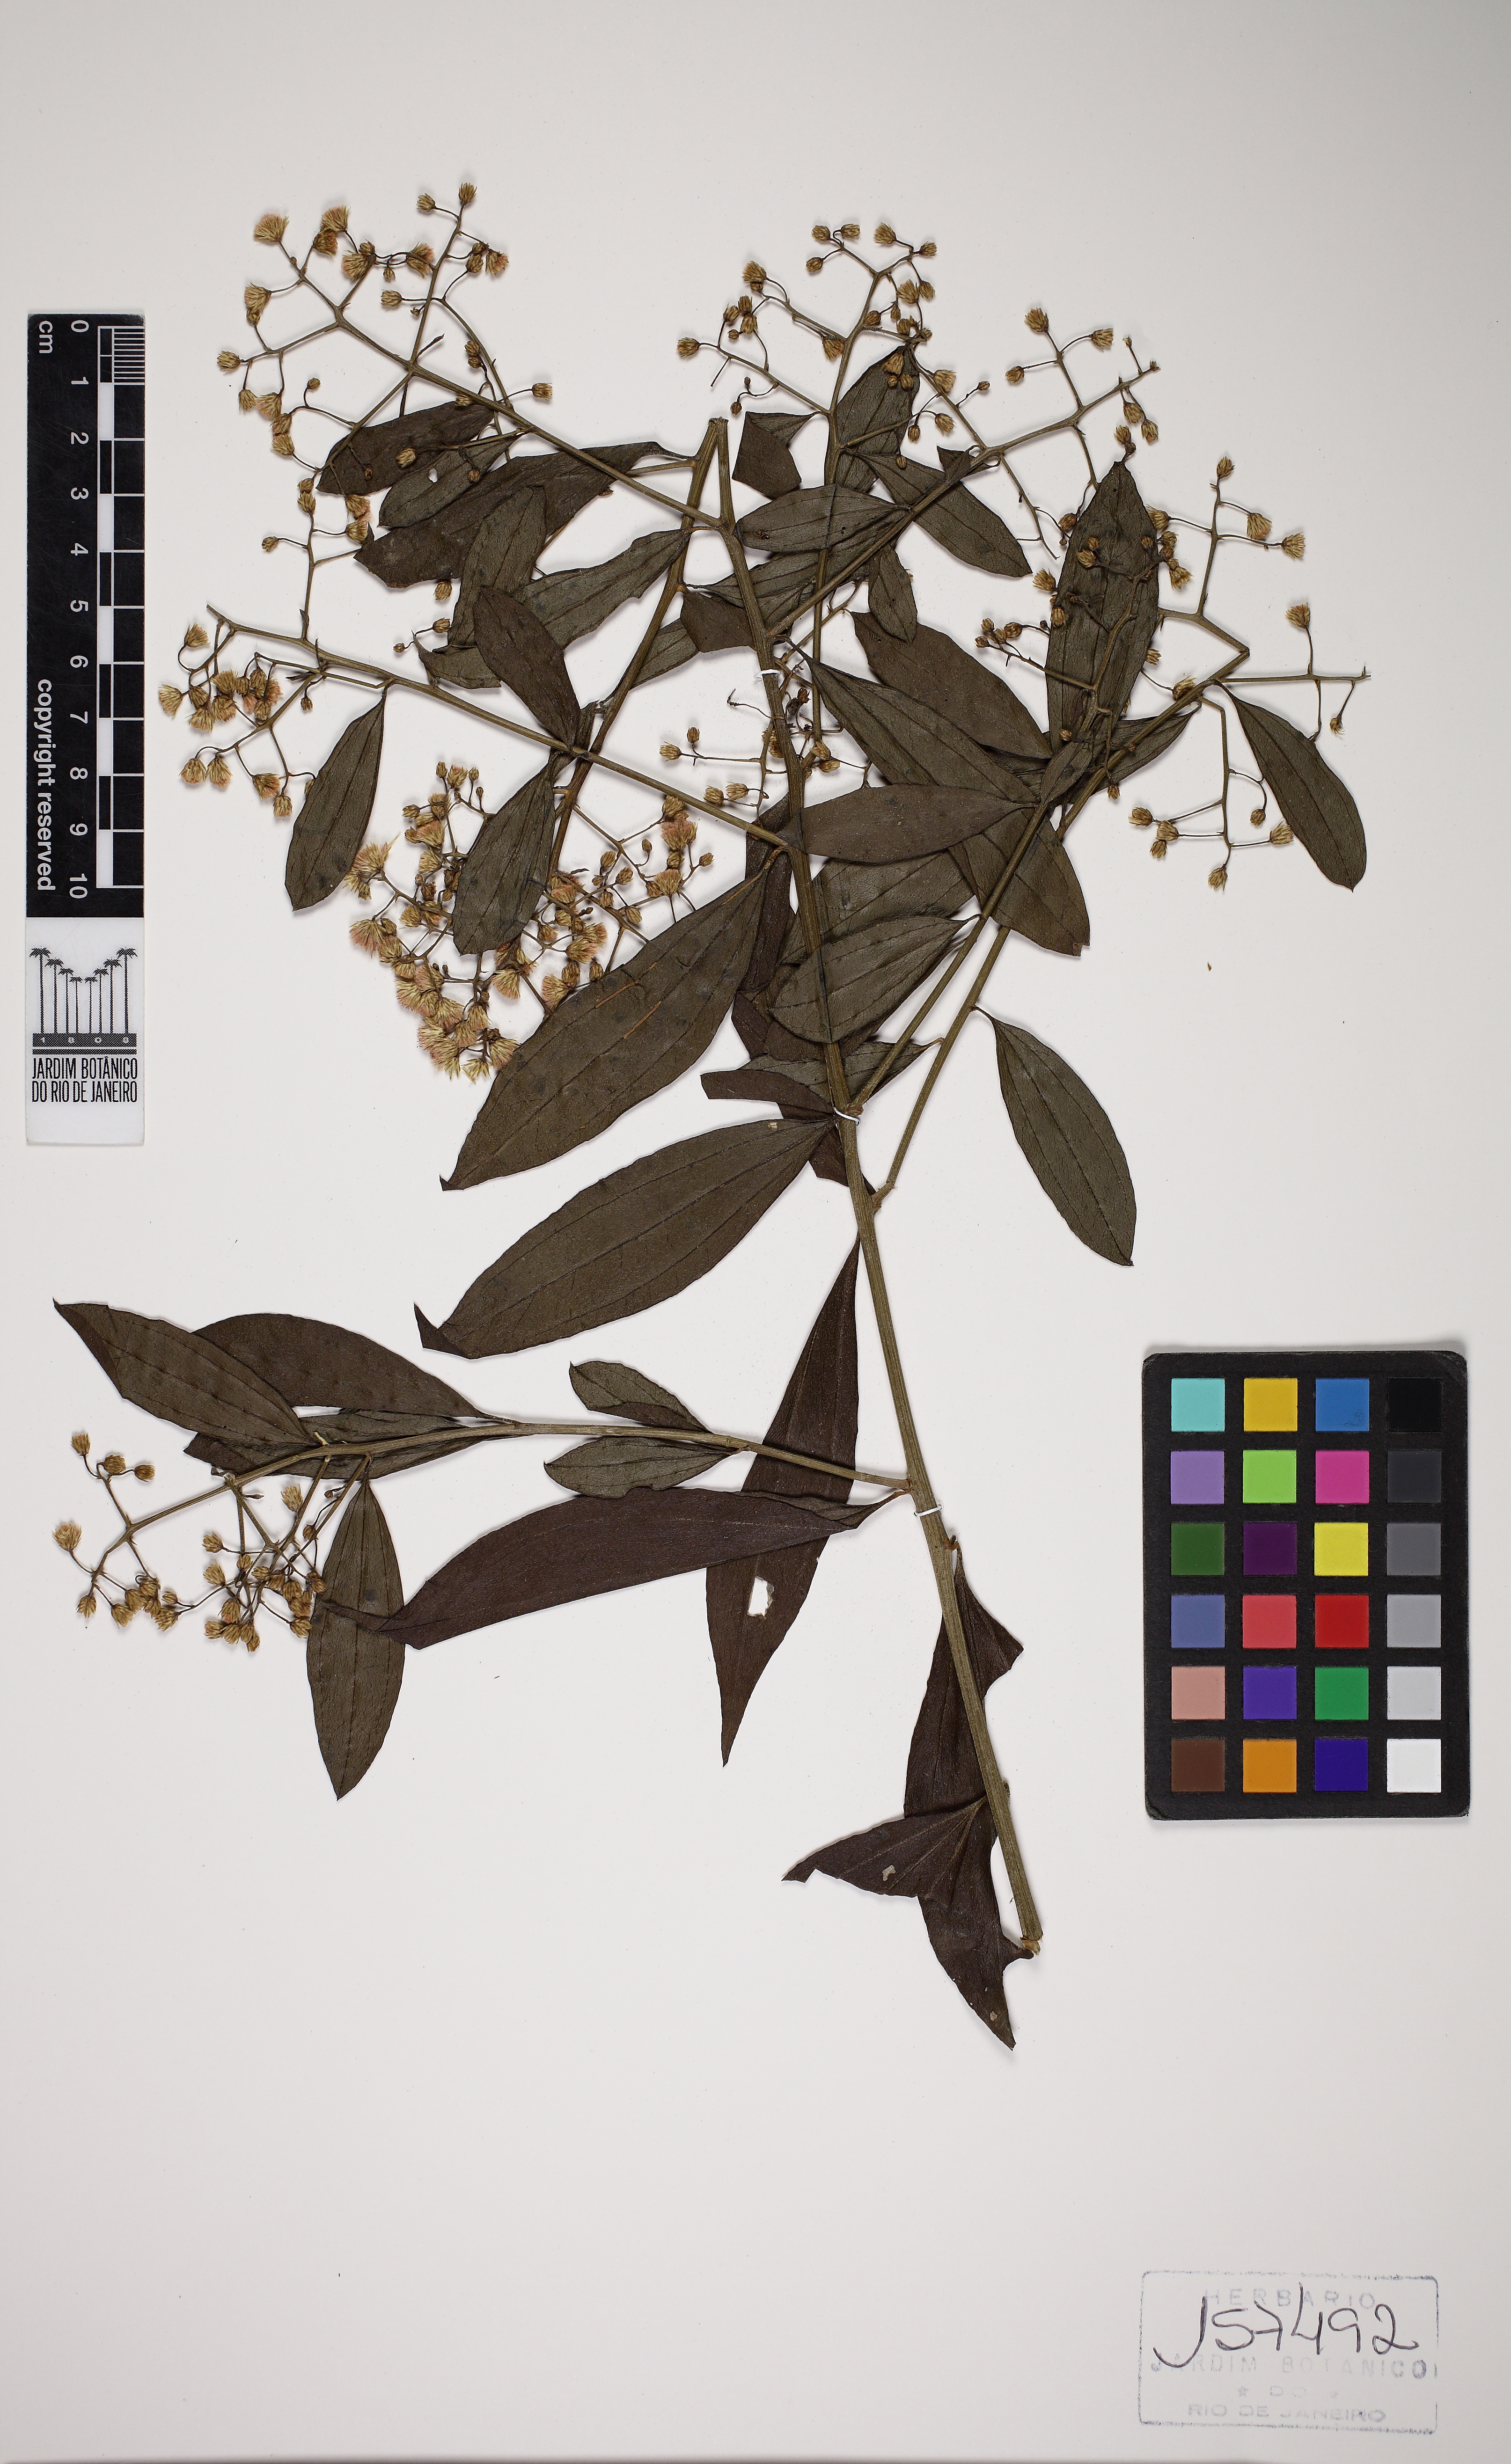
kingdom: Plantae
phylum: Tracheophyta
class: Magnoliopsida
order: Asterales
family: Asteraceae
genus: Baccharis
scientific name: Baccharis trinervis
